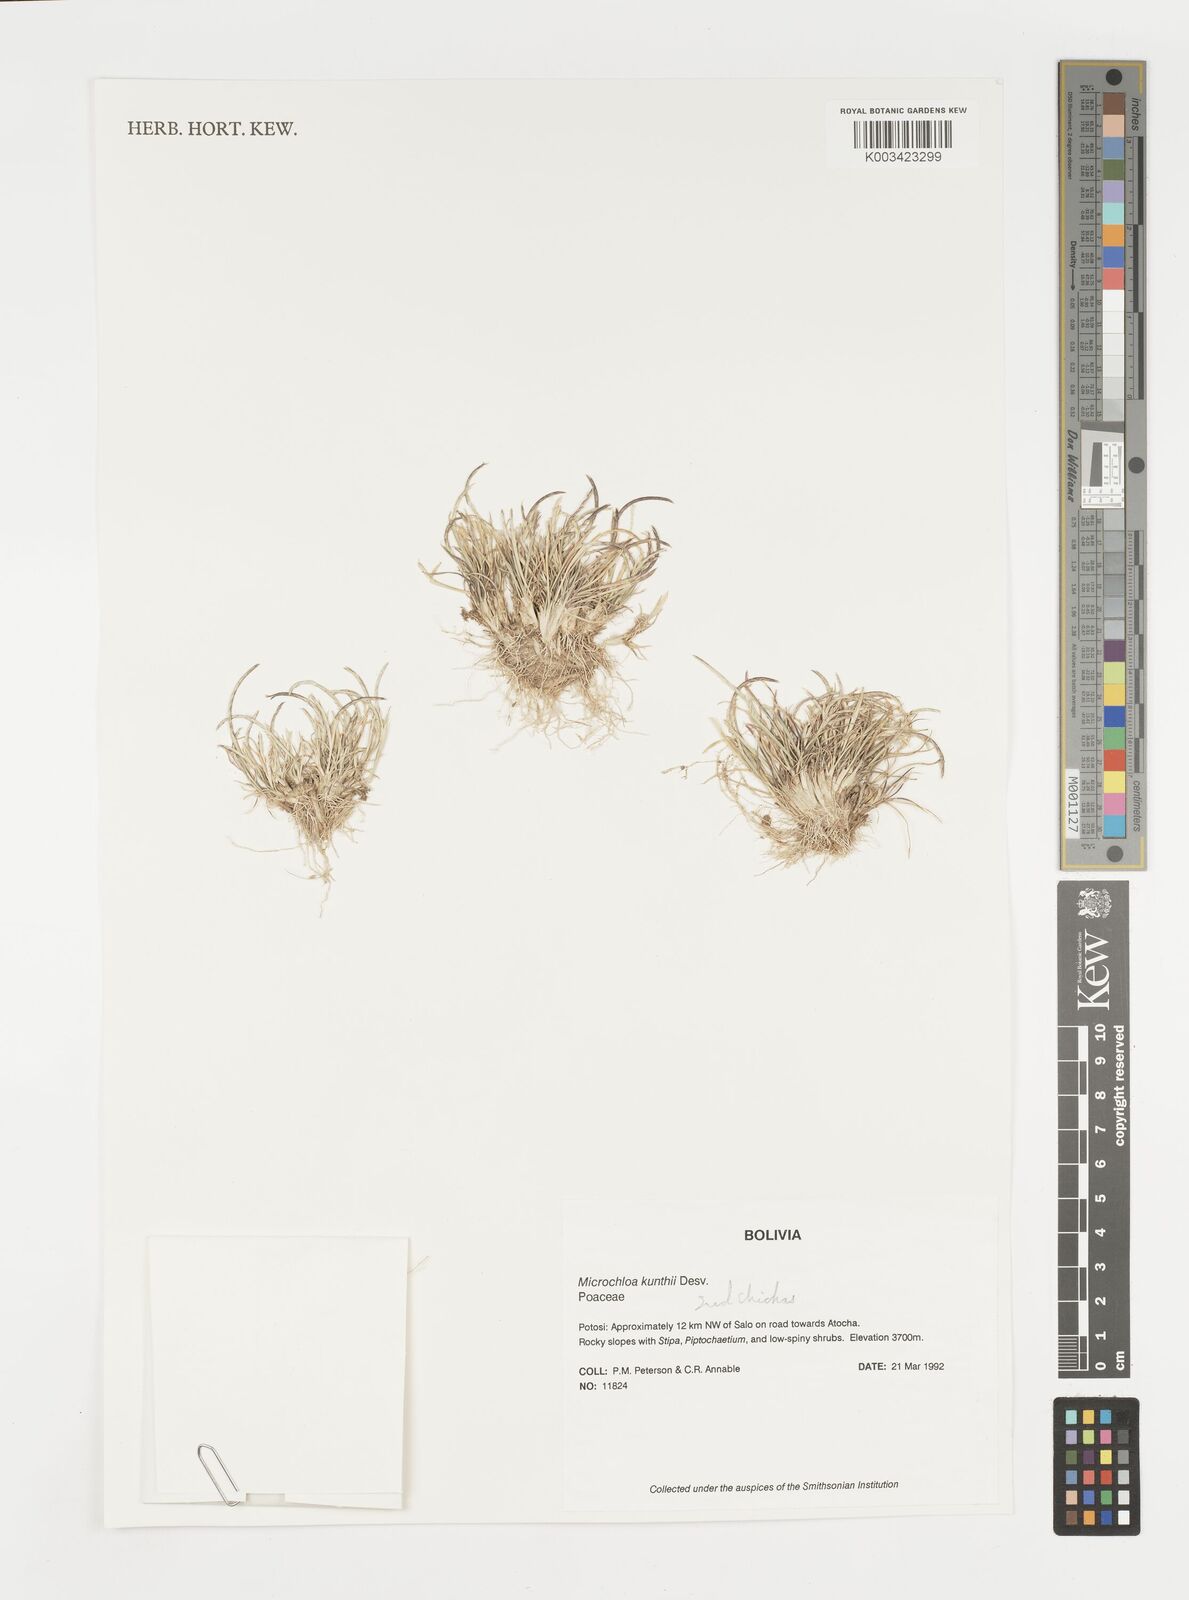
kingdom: Plantae
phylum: Tracheophyta
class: Liliopsida
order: Poales
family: Poaceae
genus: Microchloa
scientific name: Microchloa kunthii
